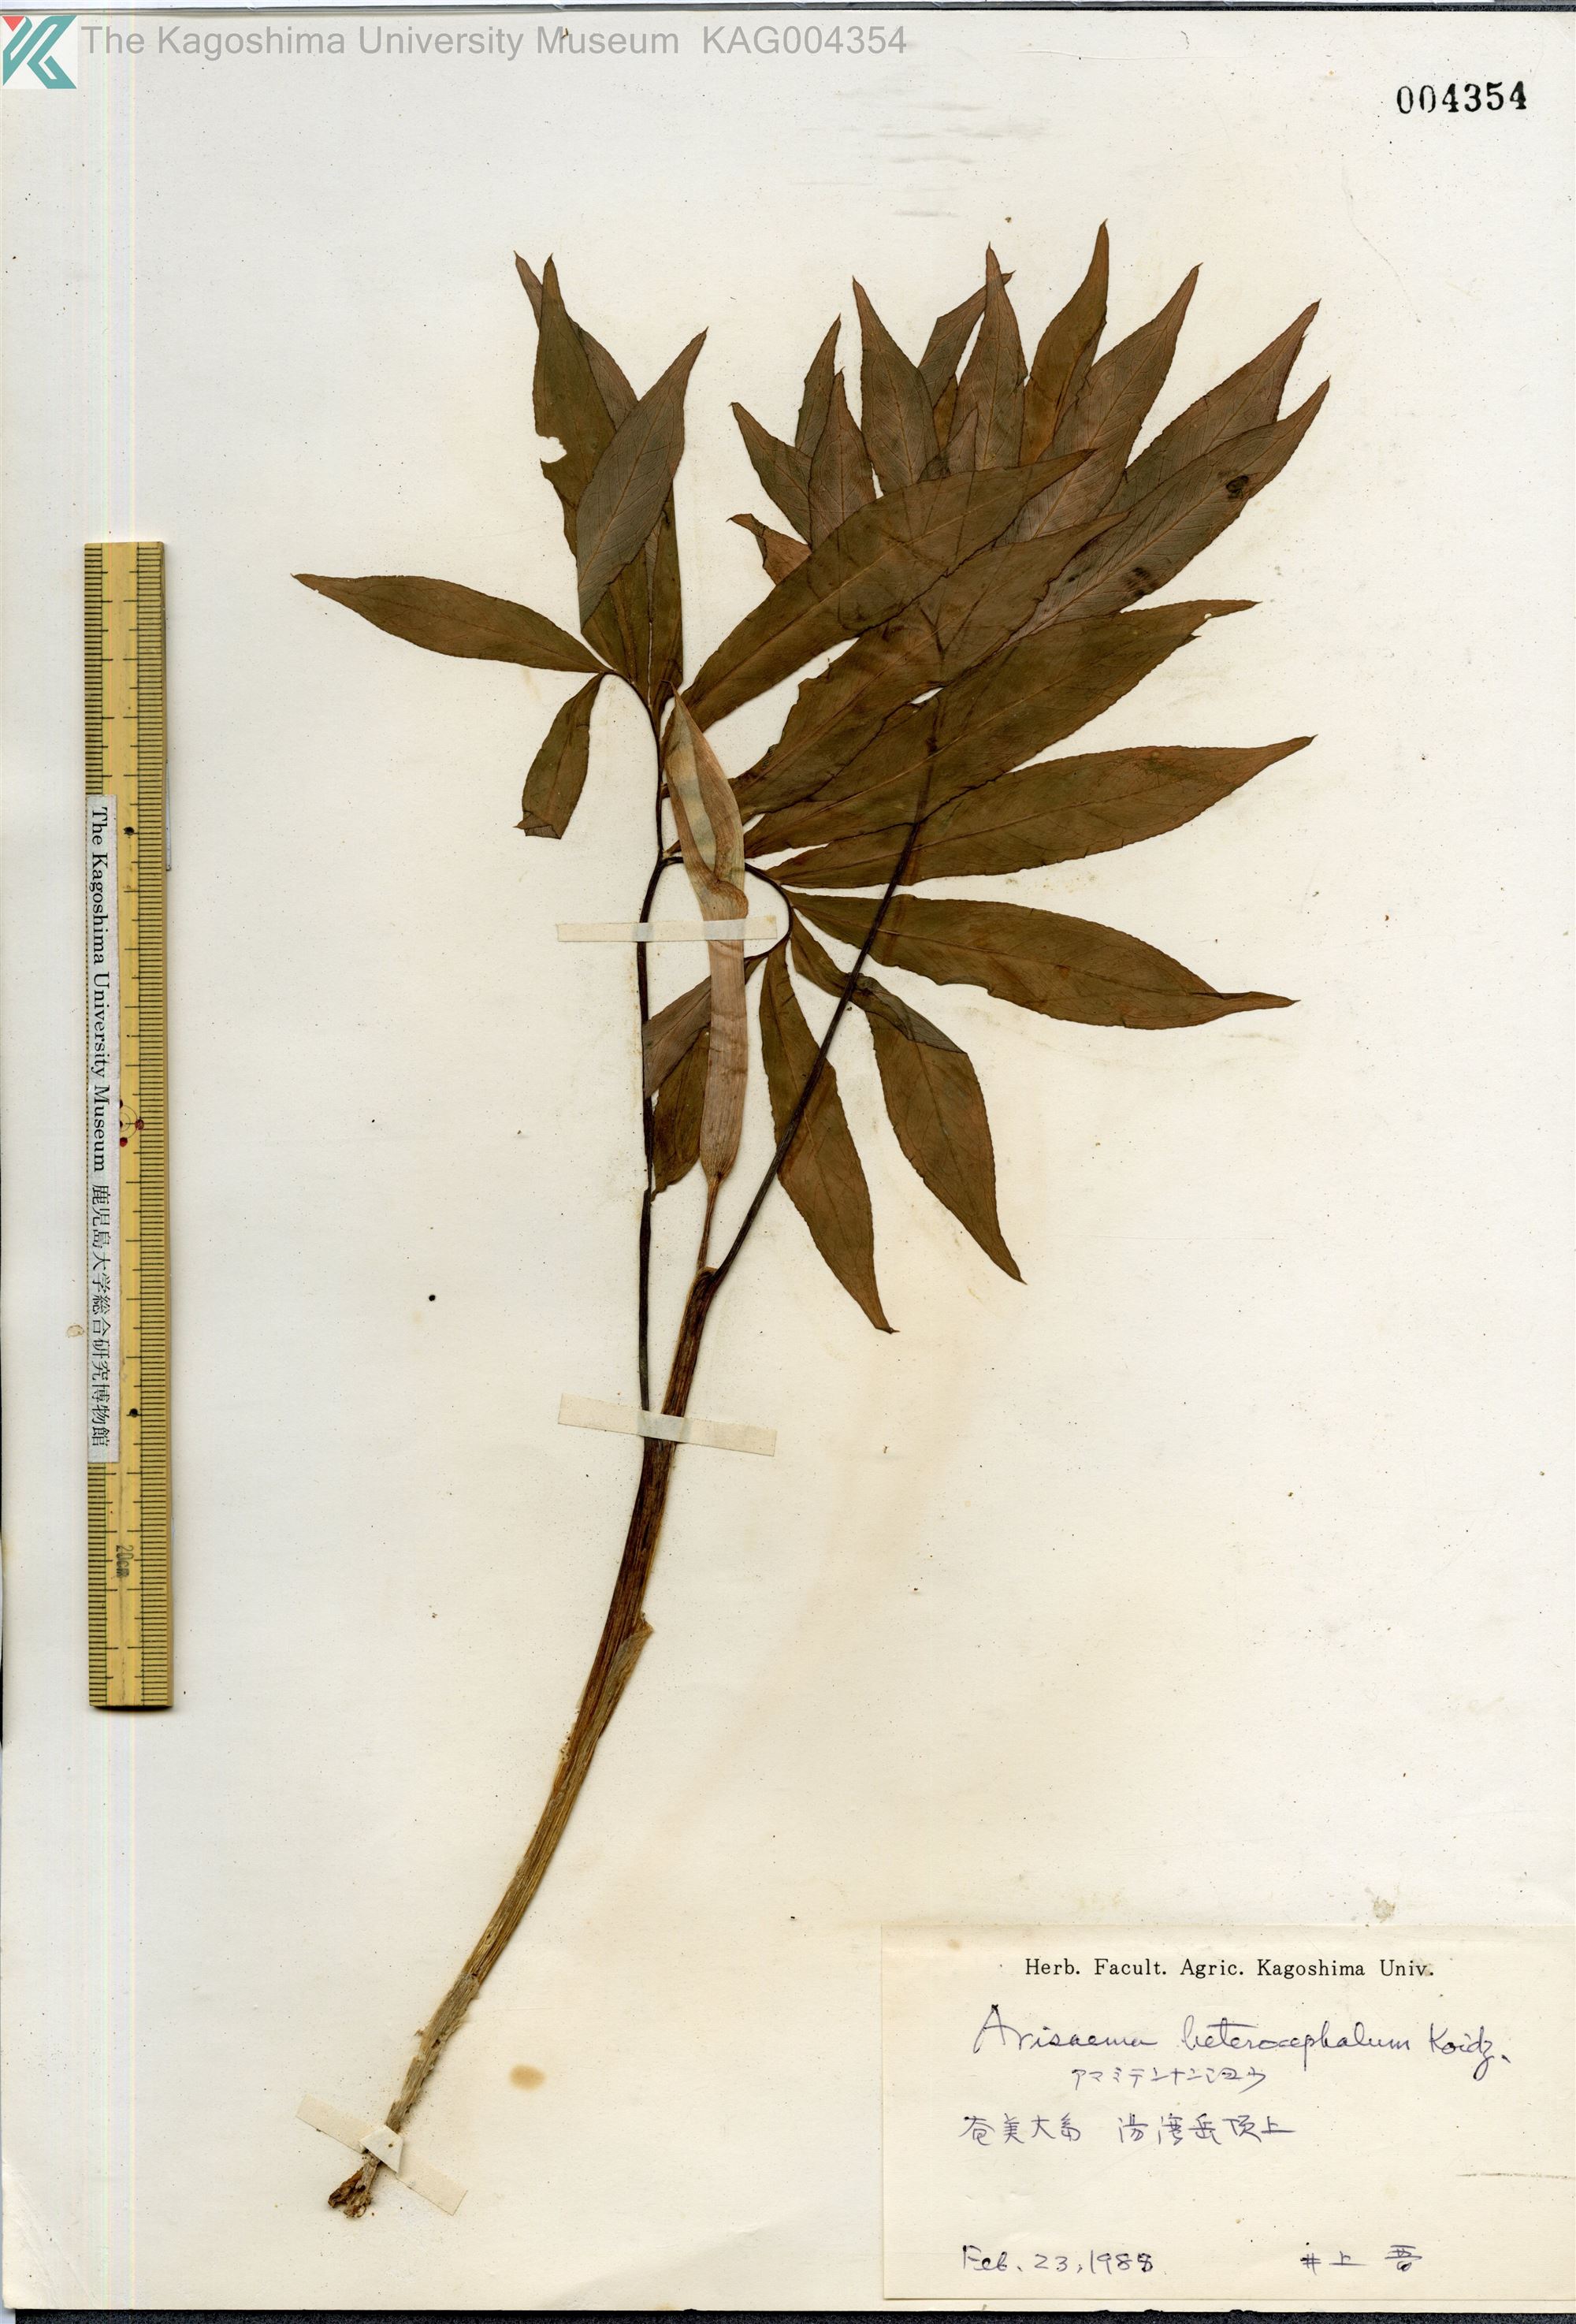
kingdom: Plantae
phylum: Tracheophyta
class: Liliopsida
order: Alismatales
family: Araceae
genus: Arisaema
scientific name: Arisaema heterocephalum
